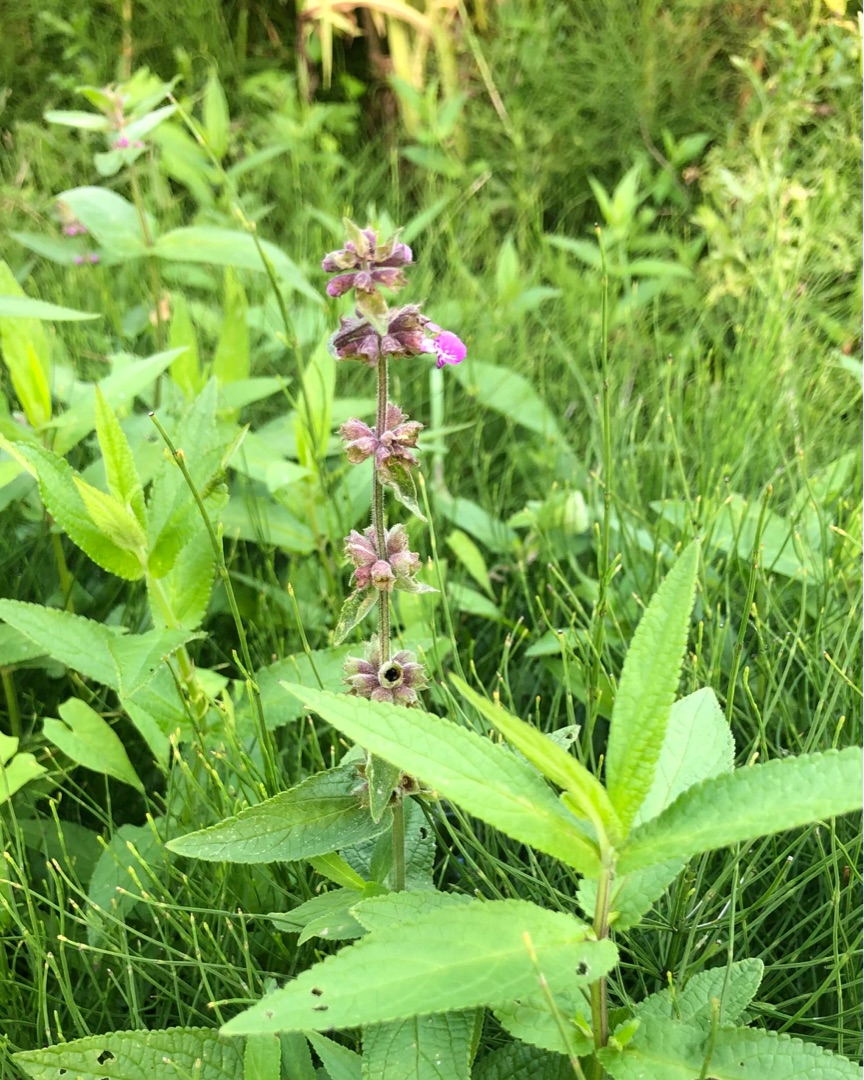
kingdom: Plantae
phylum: Tracheophyta
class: Magnoliopsida
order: Lamiales
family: Lamiaceae
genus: Stachys
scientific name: Stachys palustris
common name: Kær-galtetand
